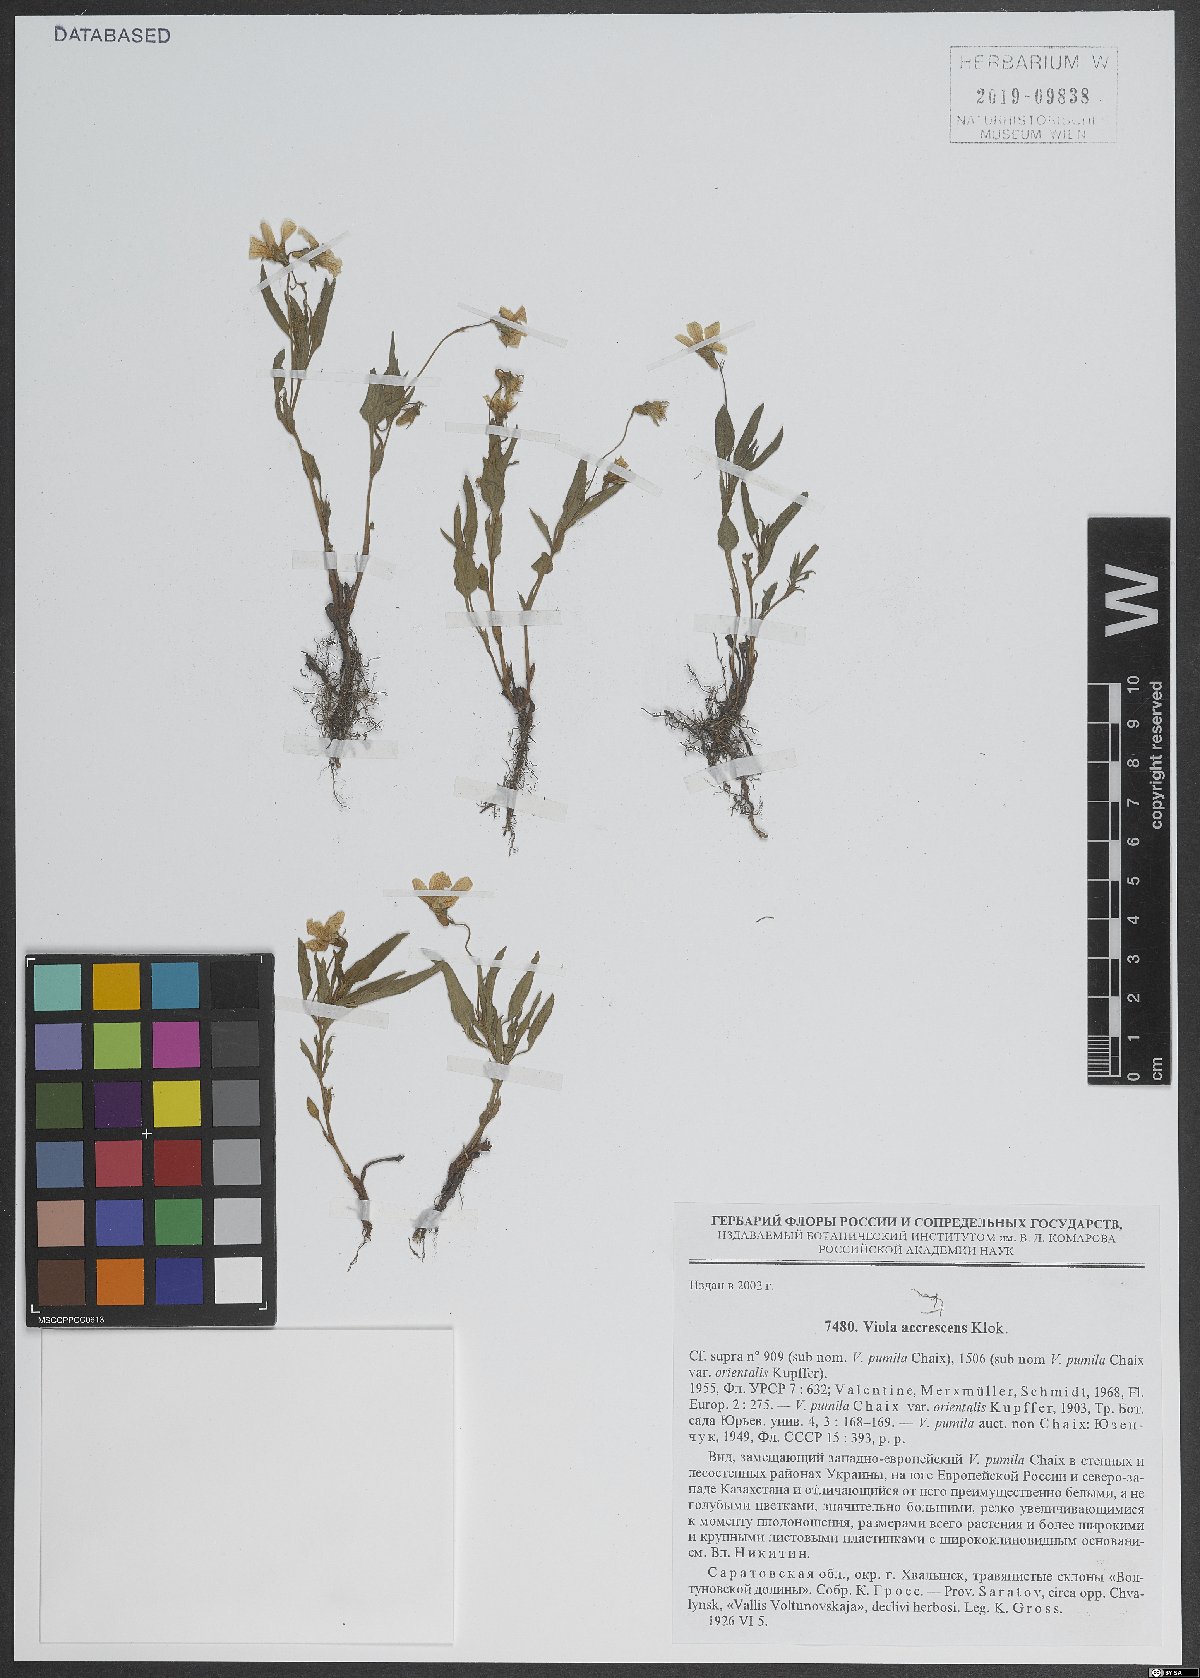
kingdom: Plantae
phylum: Tracheophyta
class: Magnoliopsida
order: Malpighiales
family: Violaceae
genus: Viola
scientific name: Viola pumila
